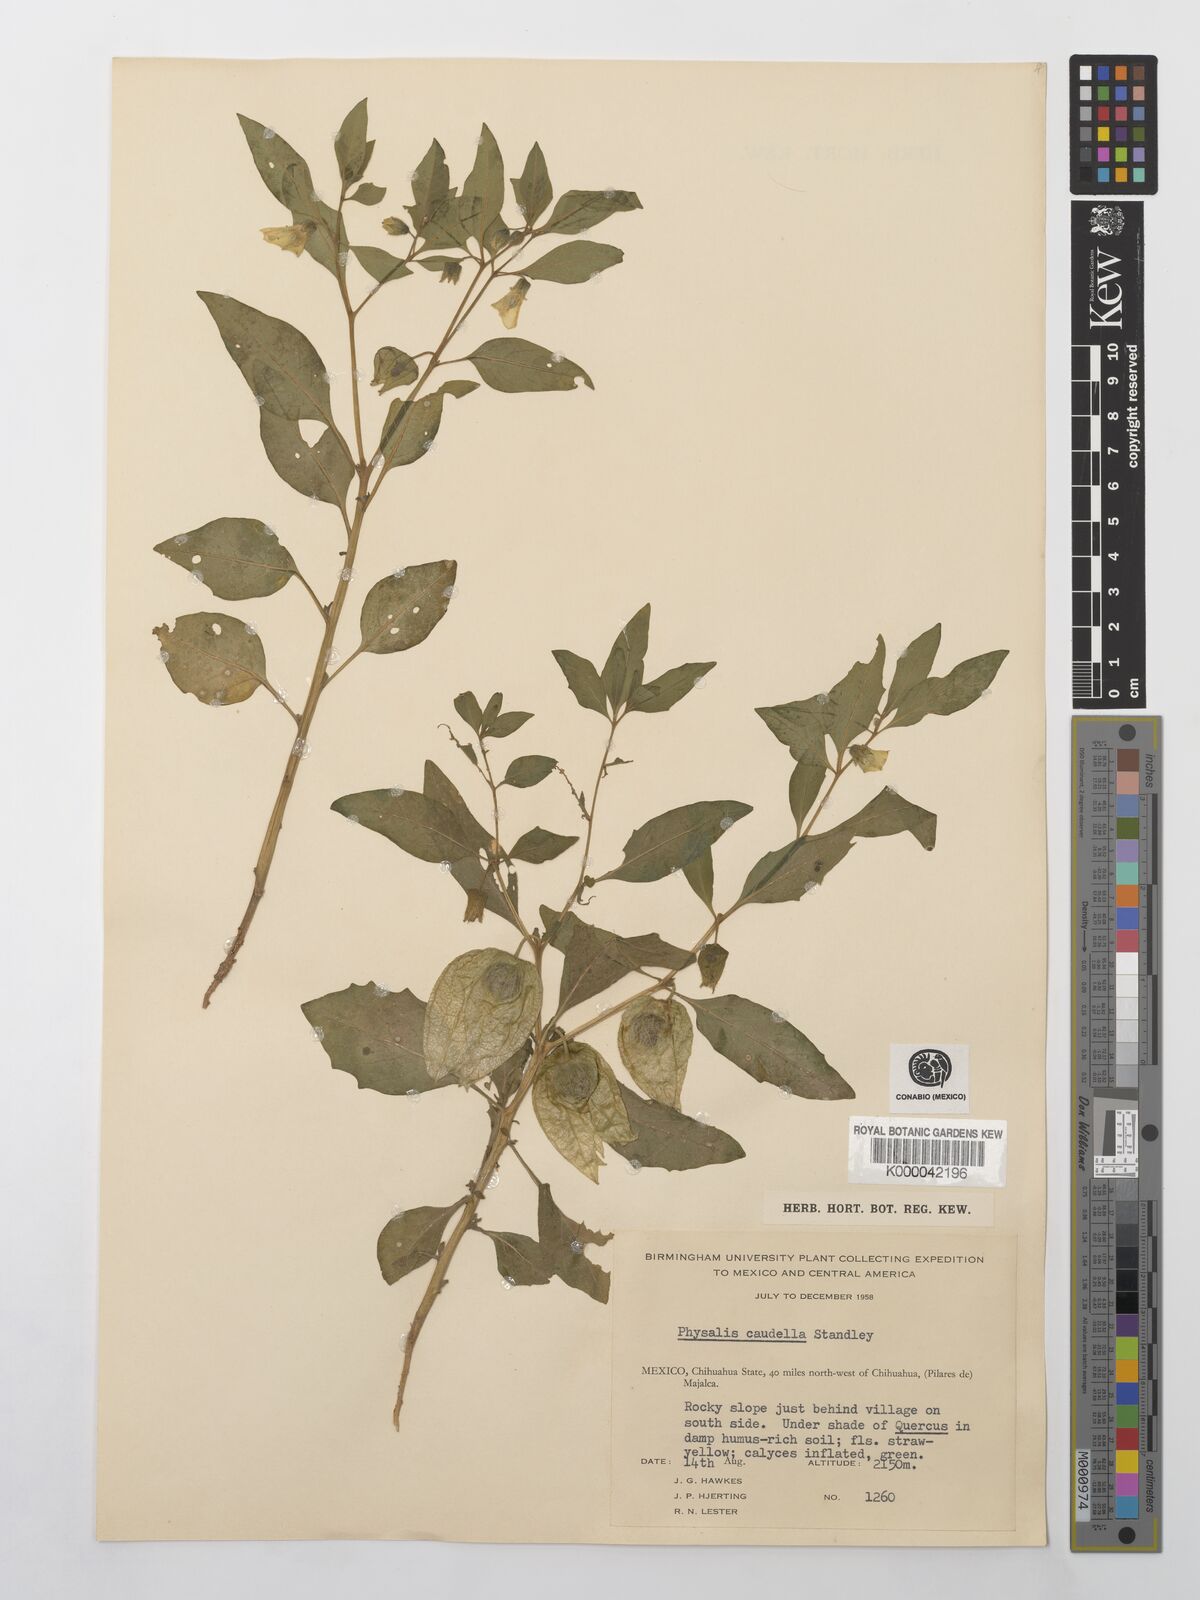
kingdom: Plantae
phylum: Tracheophyta
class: Magnoliopsida
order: Solanales
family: Solanaceae
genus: Physalis
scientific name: Physalis caudella
